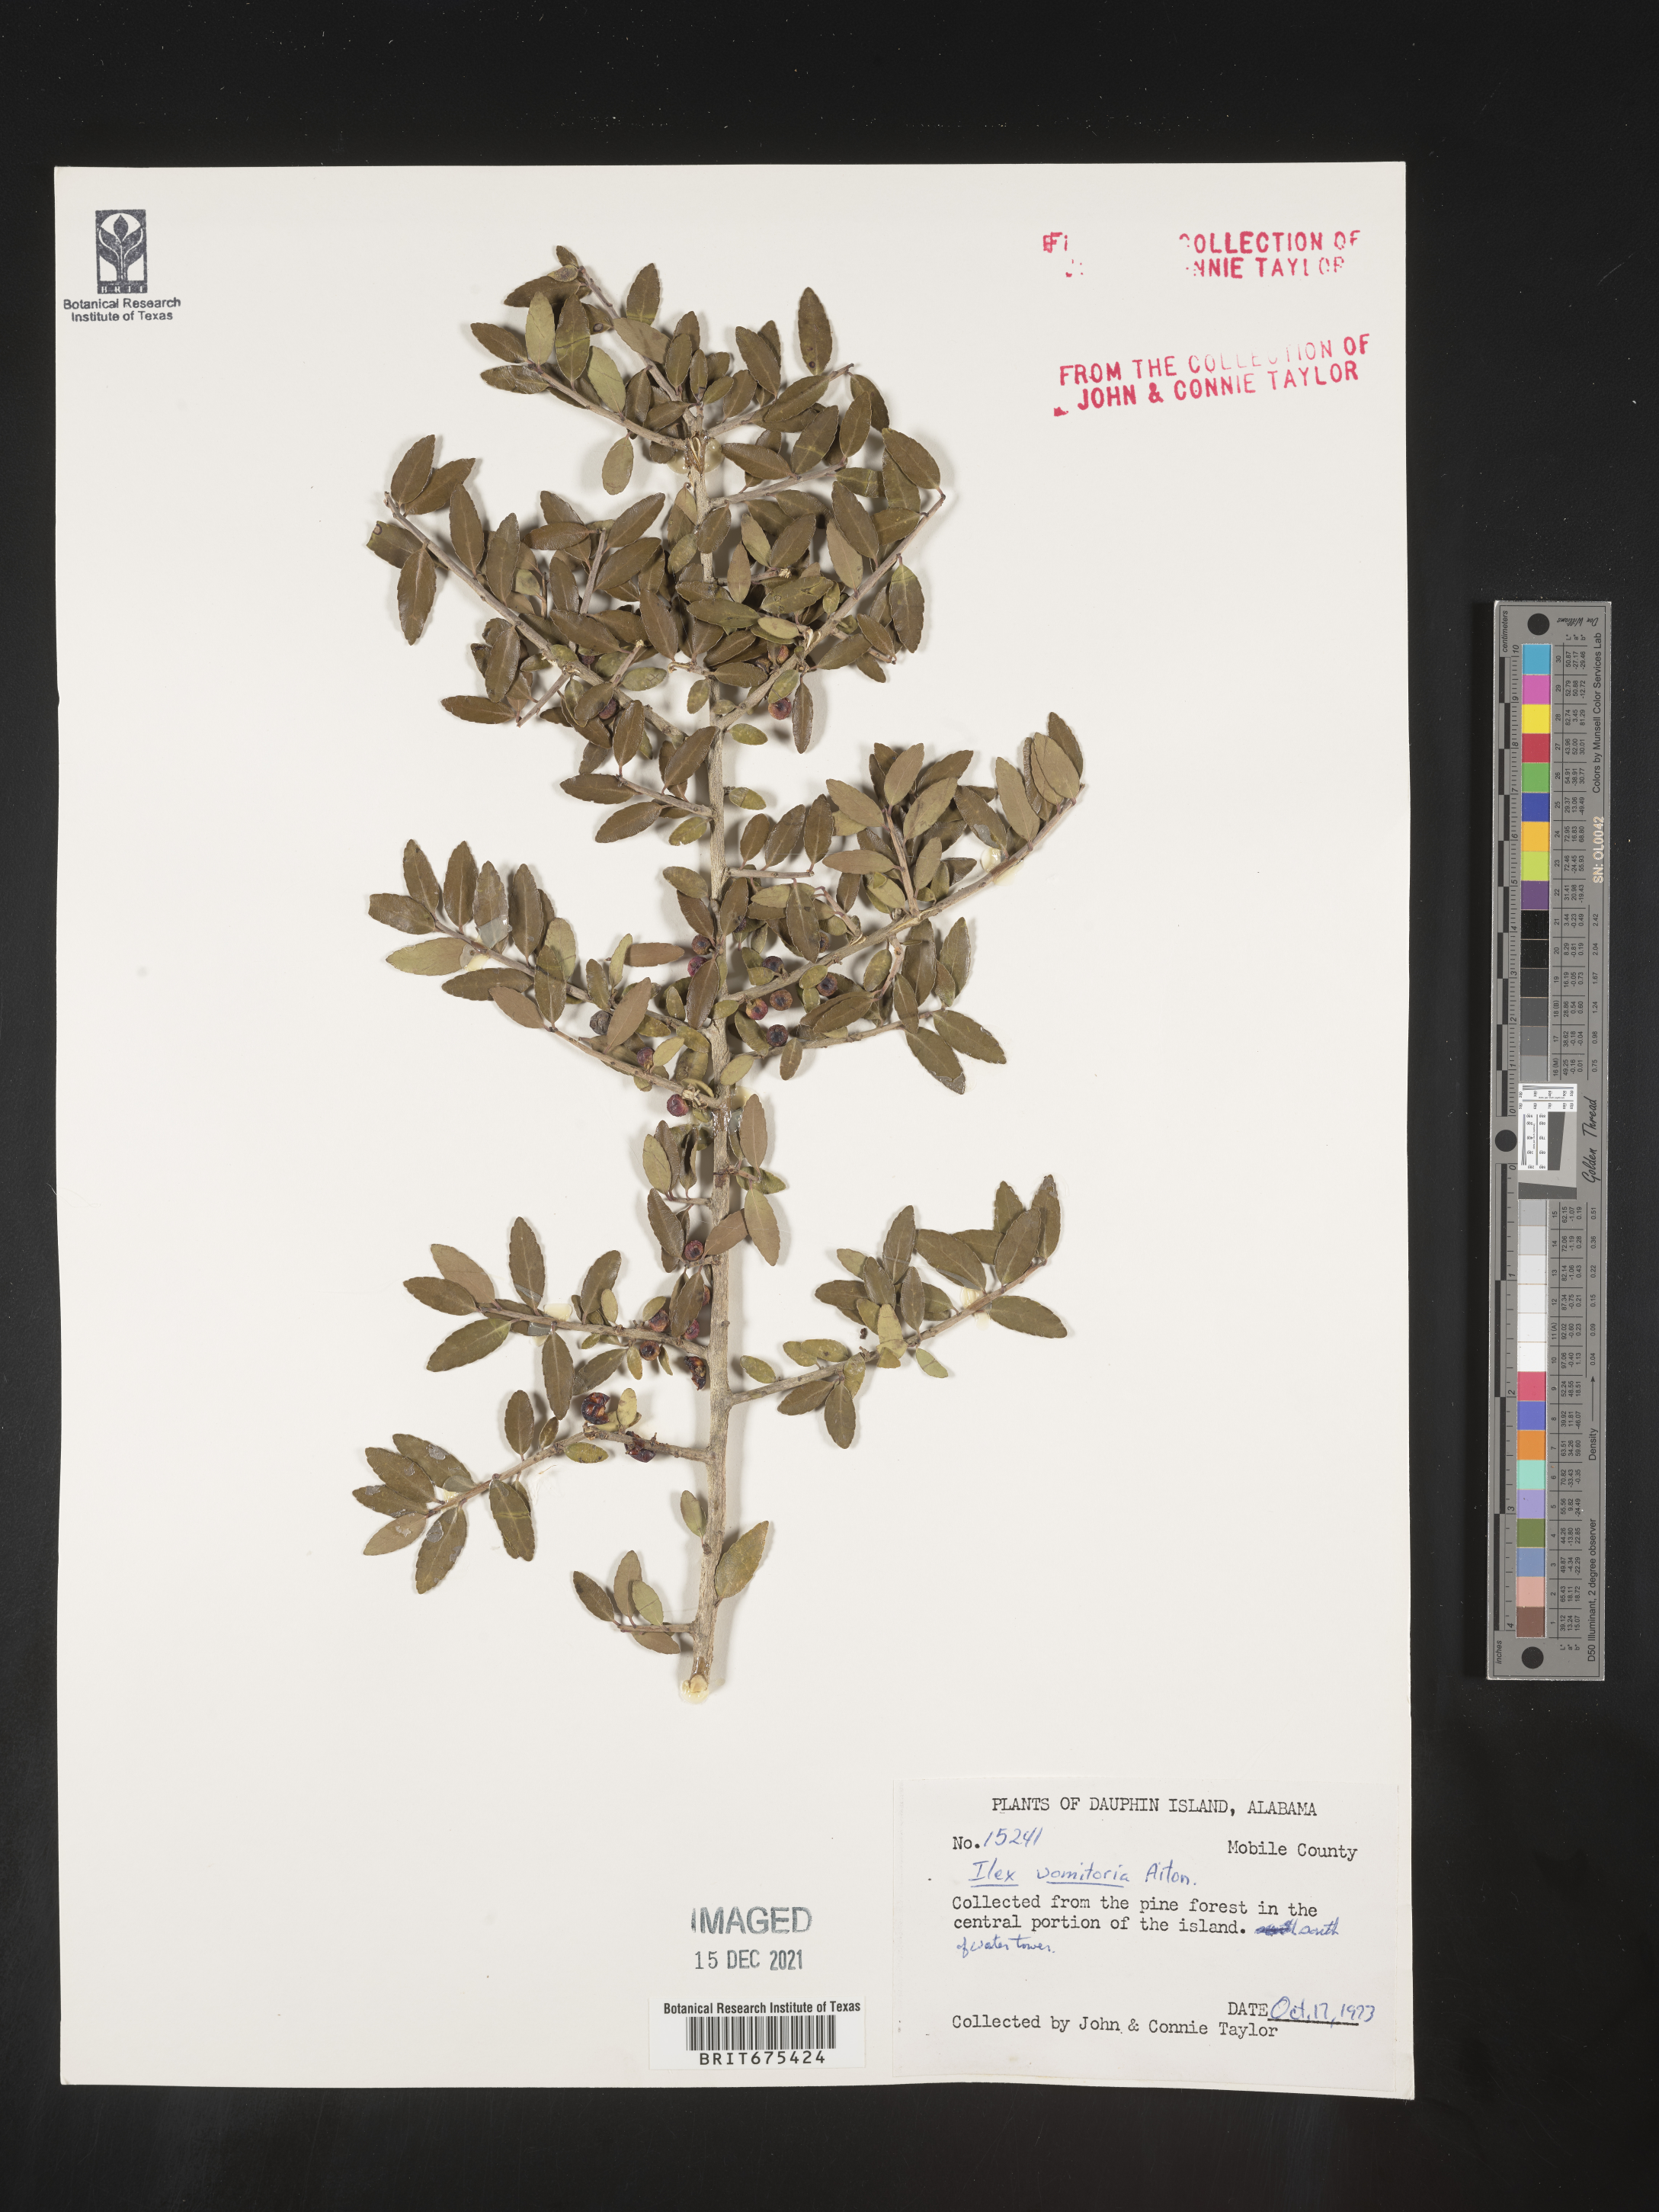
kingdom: Plantae
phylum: Tracheophyta
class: Magnoliopsida
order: Aquifoliales
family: Aquifoliaceae
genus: Ilex
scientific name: Ilex vomitoria
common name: Yaupon holly
